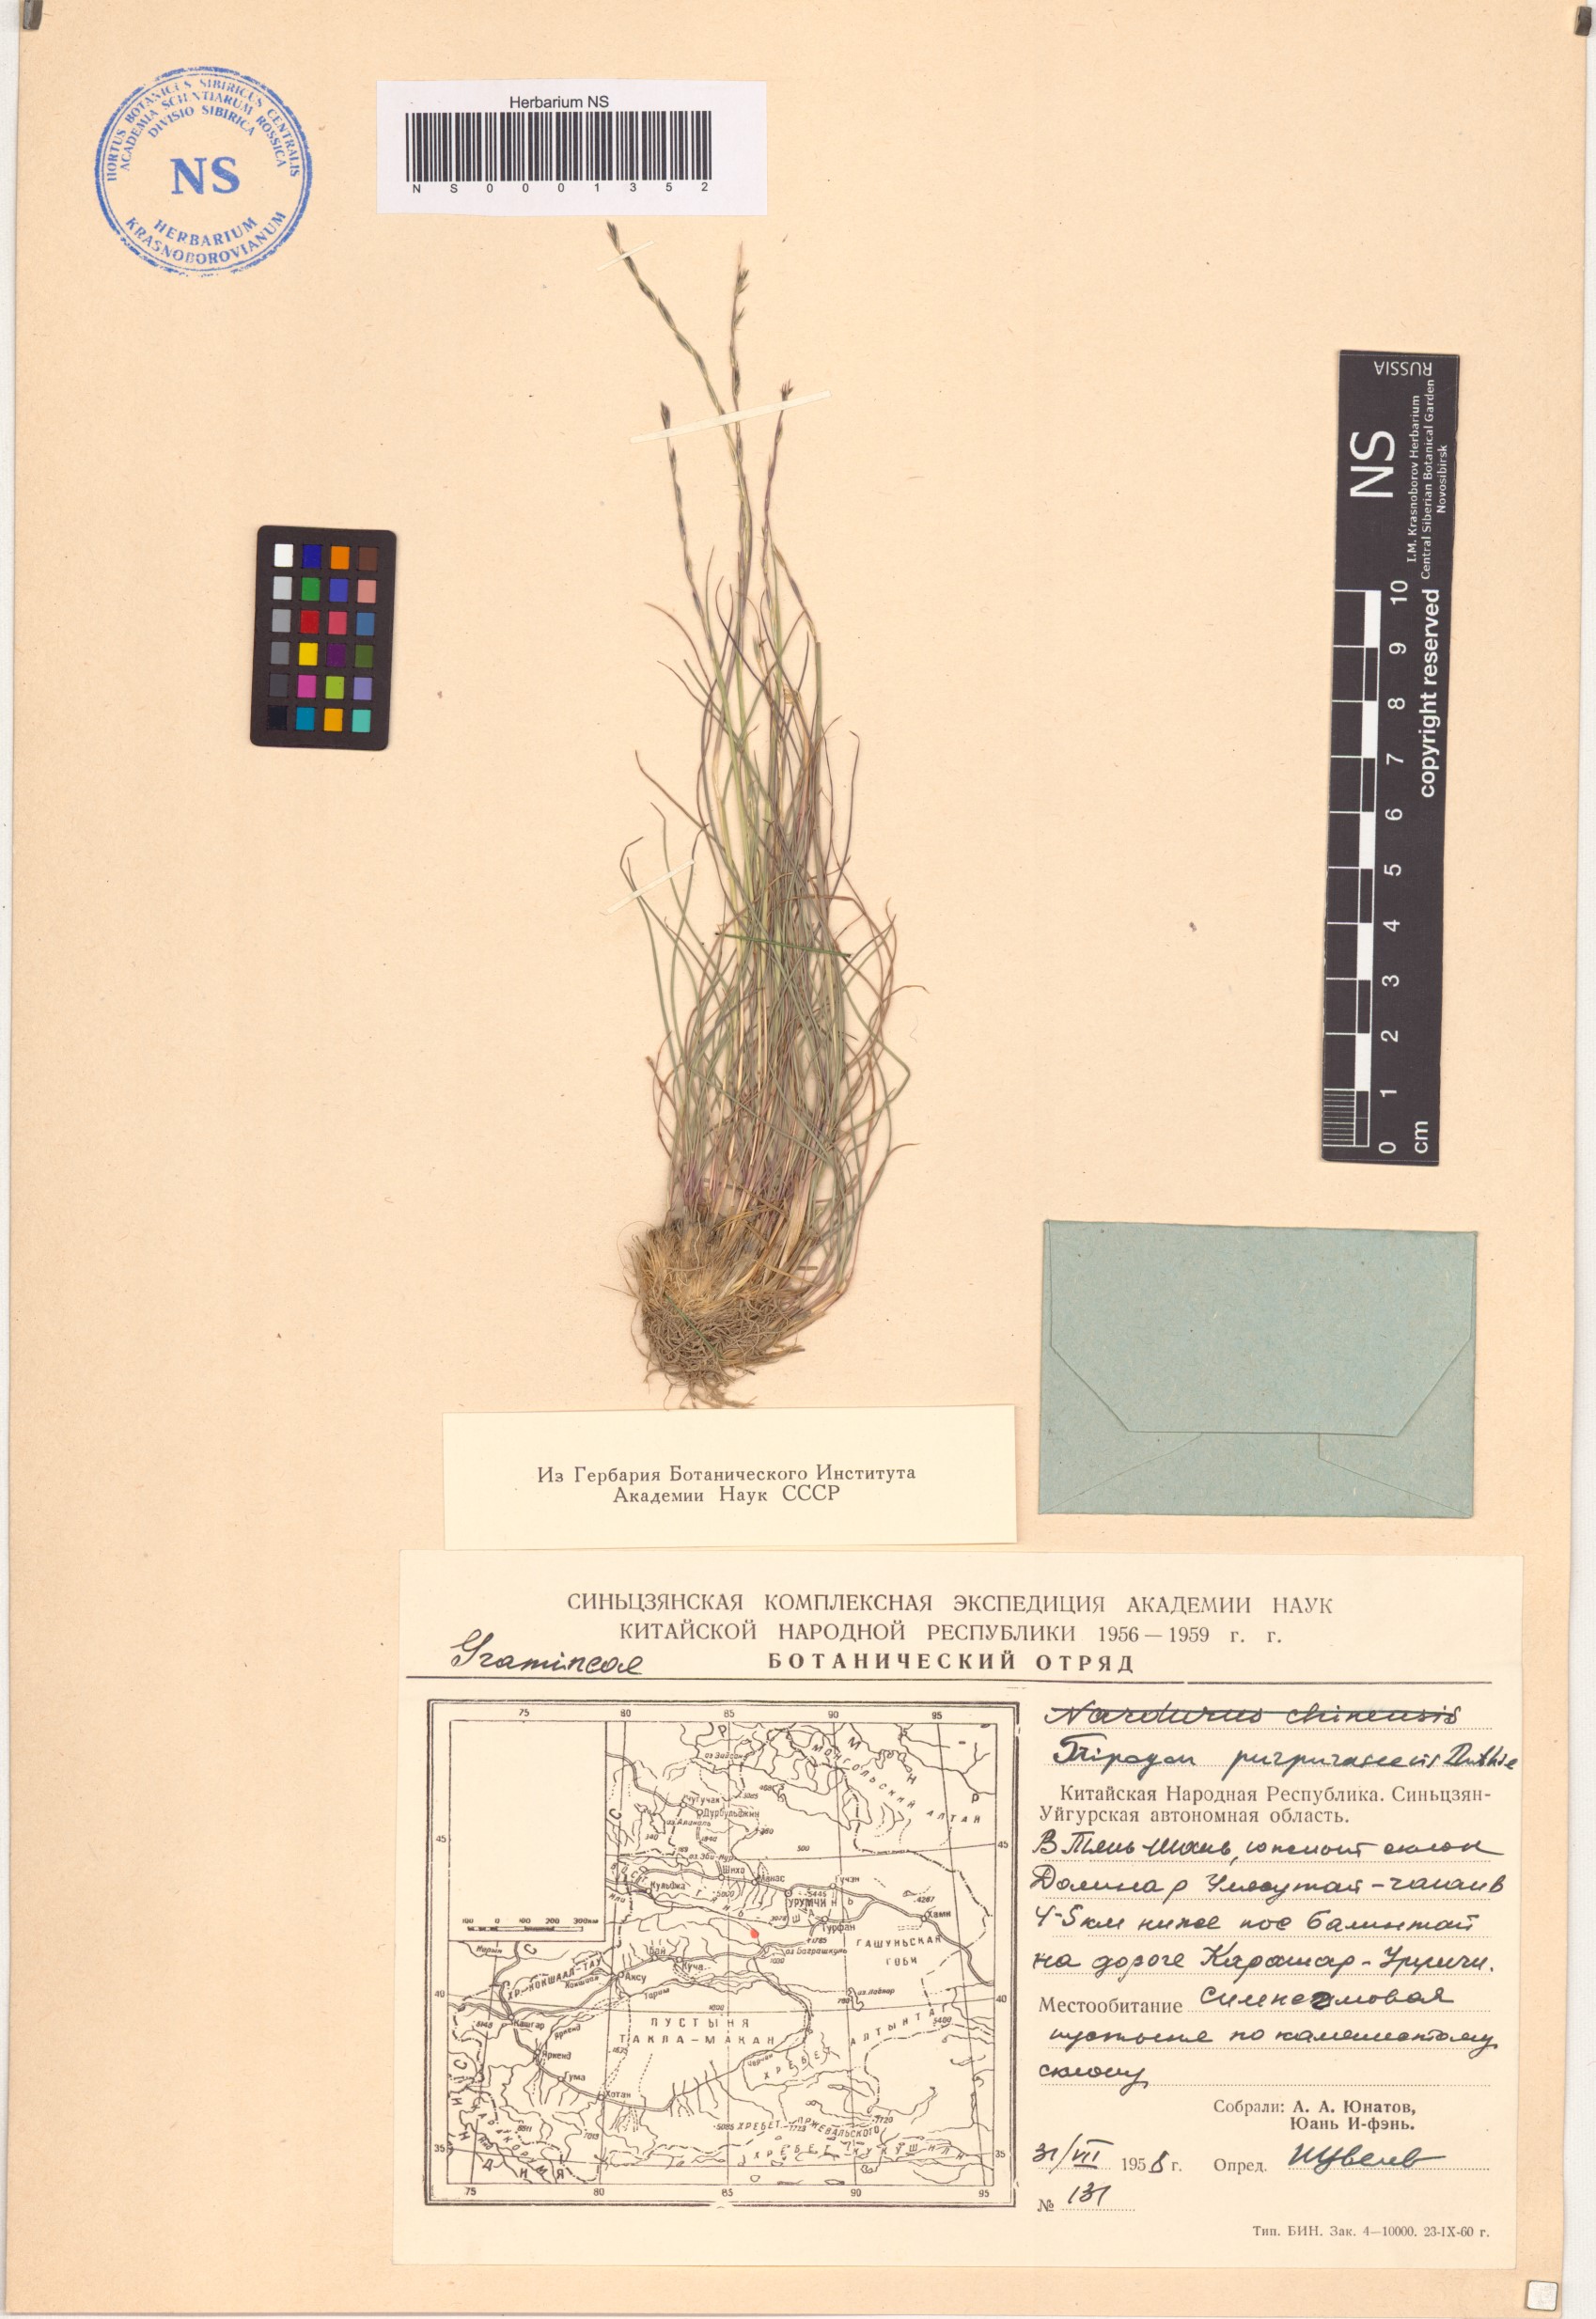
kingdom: Plantae
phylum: Tracheophyta
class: Liliopsida
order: Poales
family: Poaceae
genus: Tripogon
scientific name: Tripogon purpurascens
